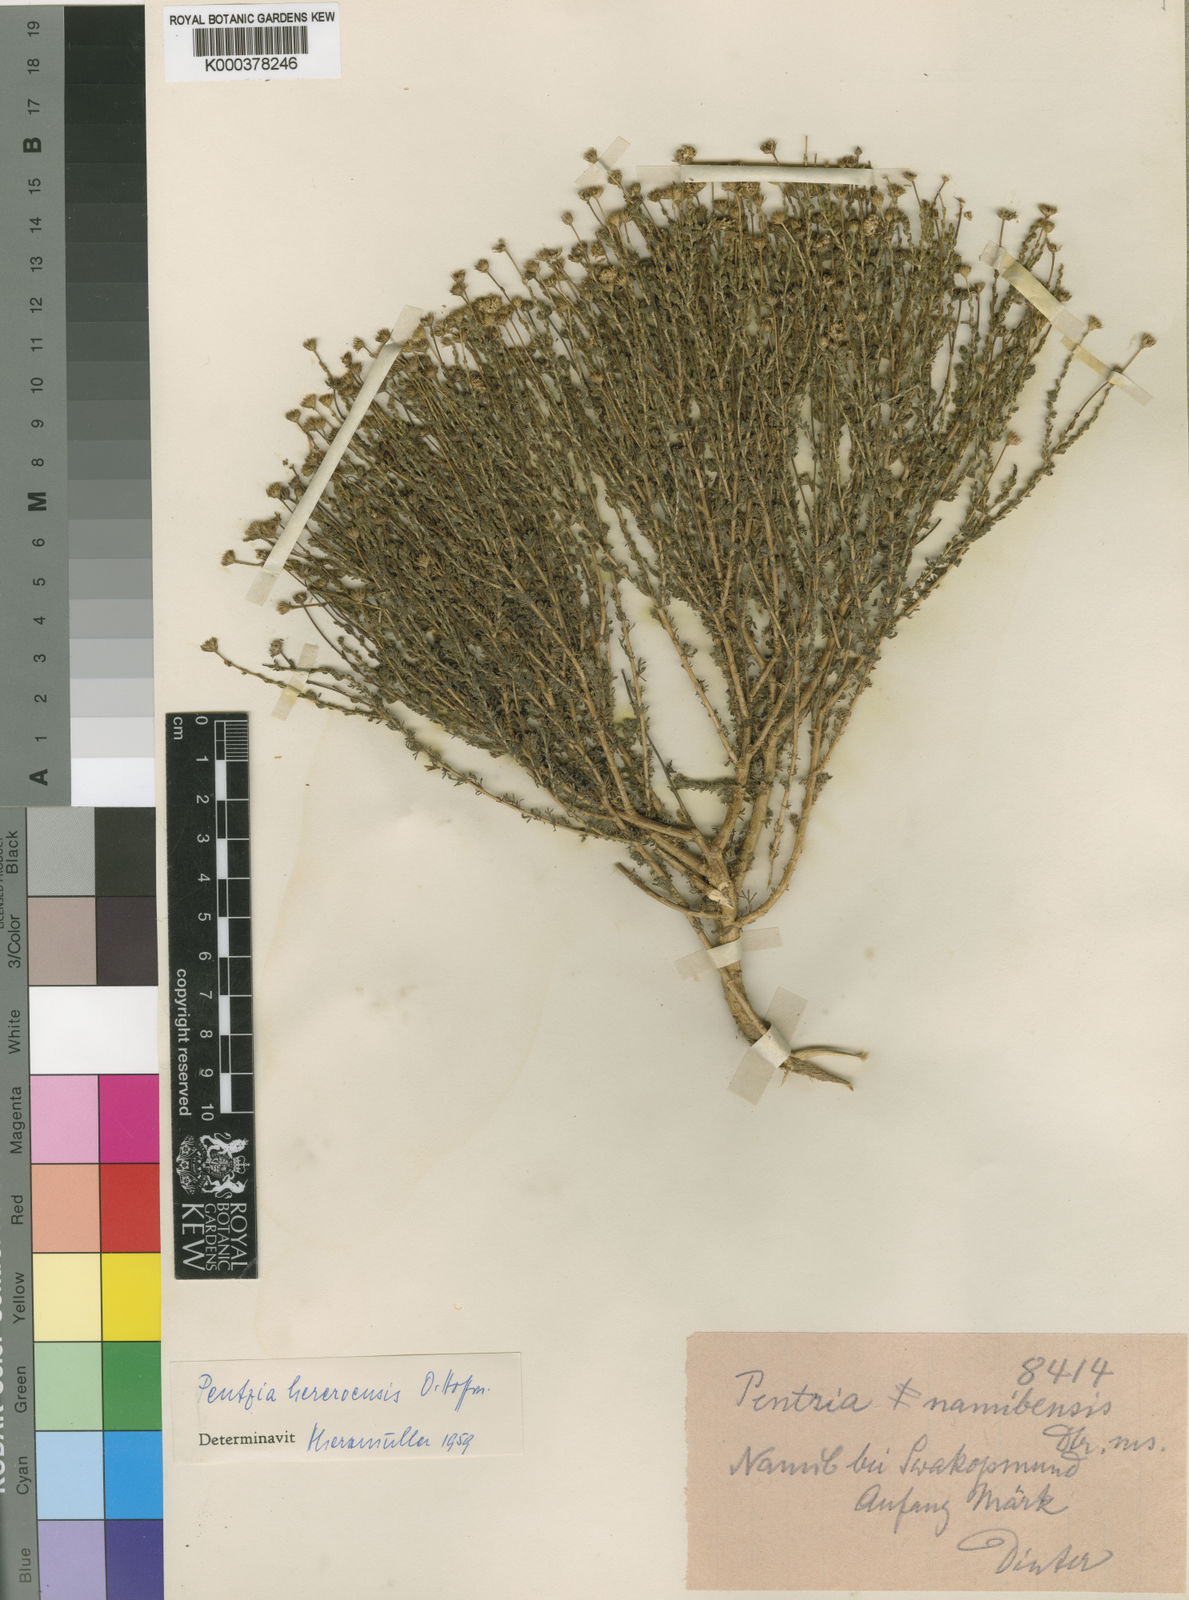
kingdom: Plantae
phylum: Tracheophyta
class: Magnoliopsida
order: Asterales
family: Asteraceae
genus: Myxopappus
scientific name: Myxopappus
